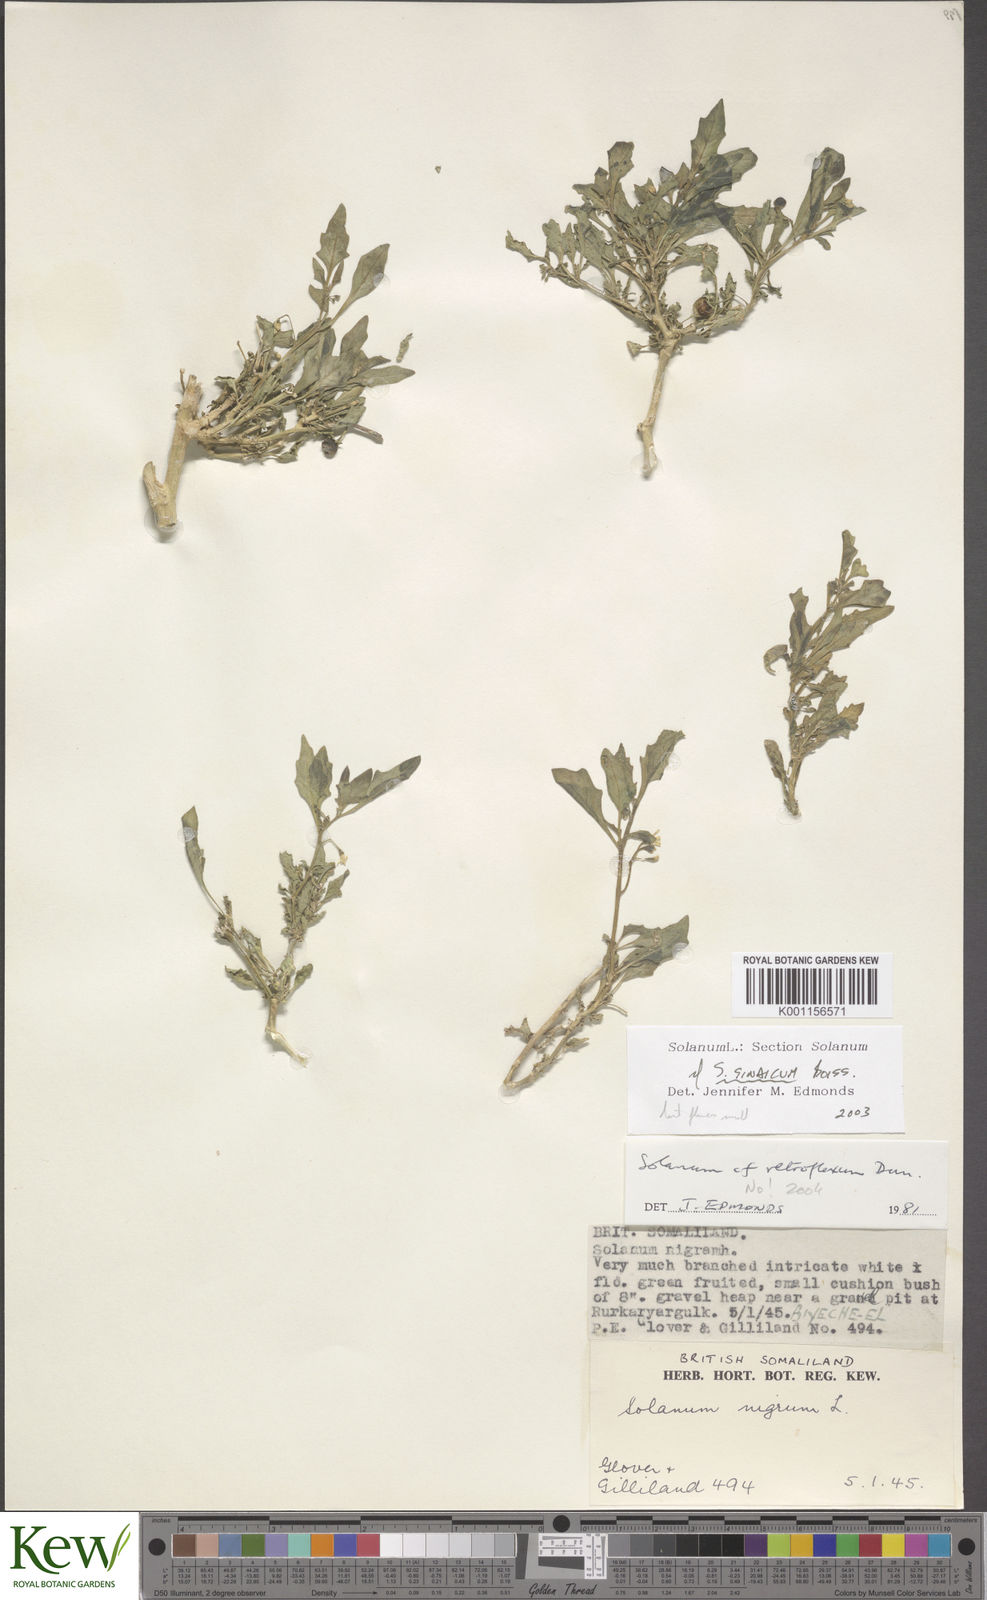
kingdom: Plantae
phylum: Tracheophyta
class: Magnoliopsida
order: Solanales
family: Solanaceae
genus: Solanum
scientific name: Solanum villosum
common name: Red nightshade
